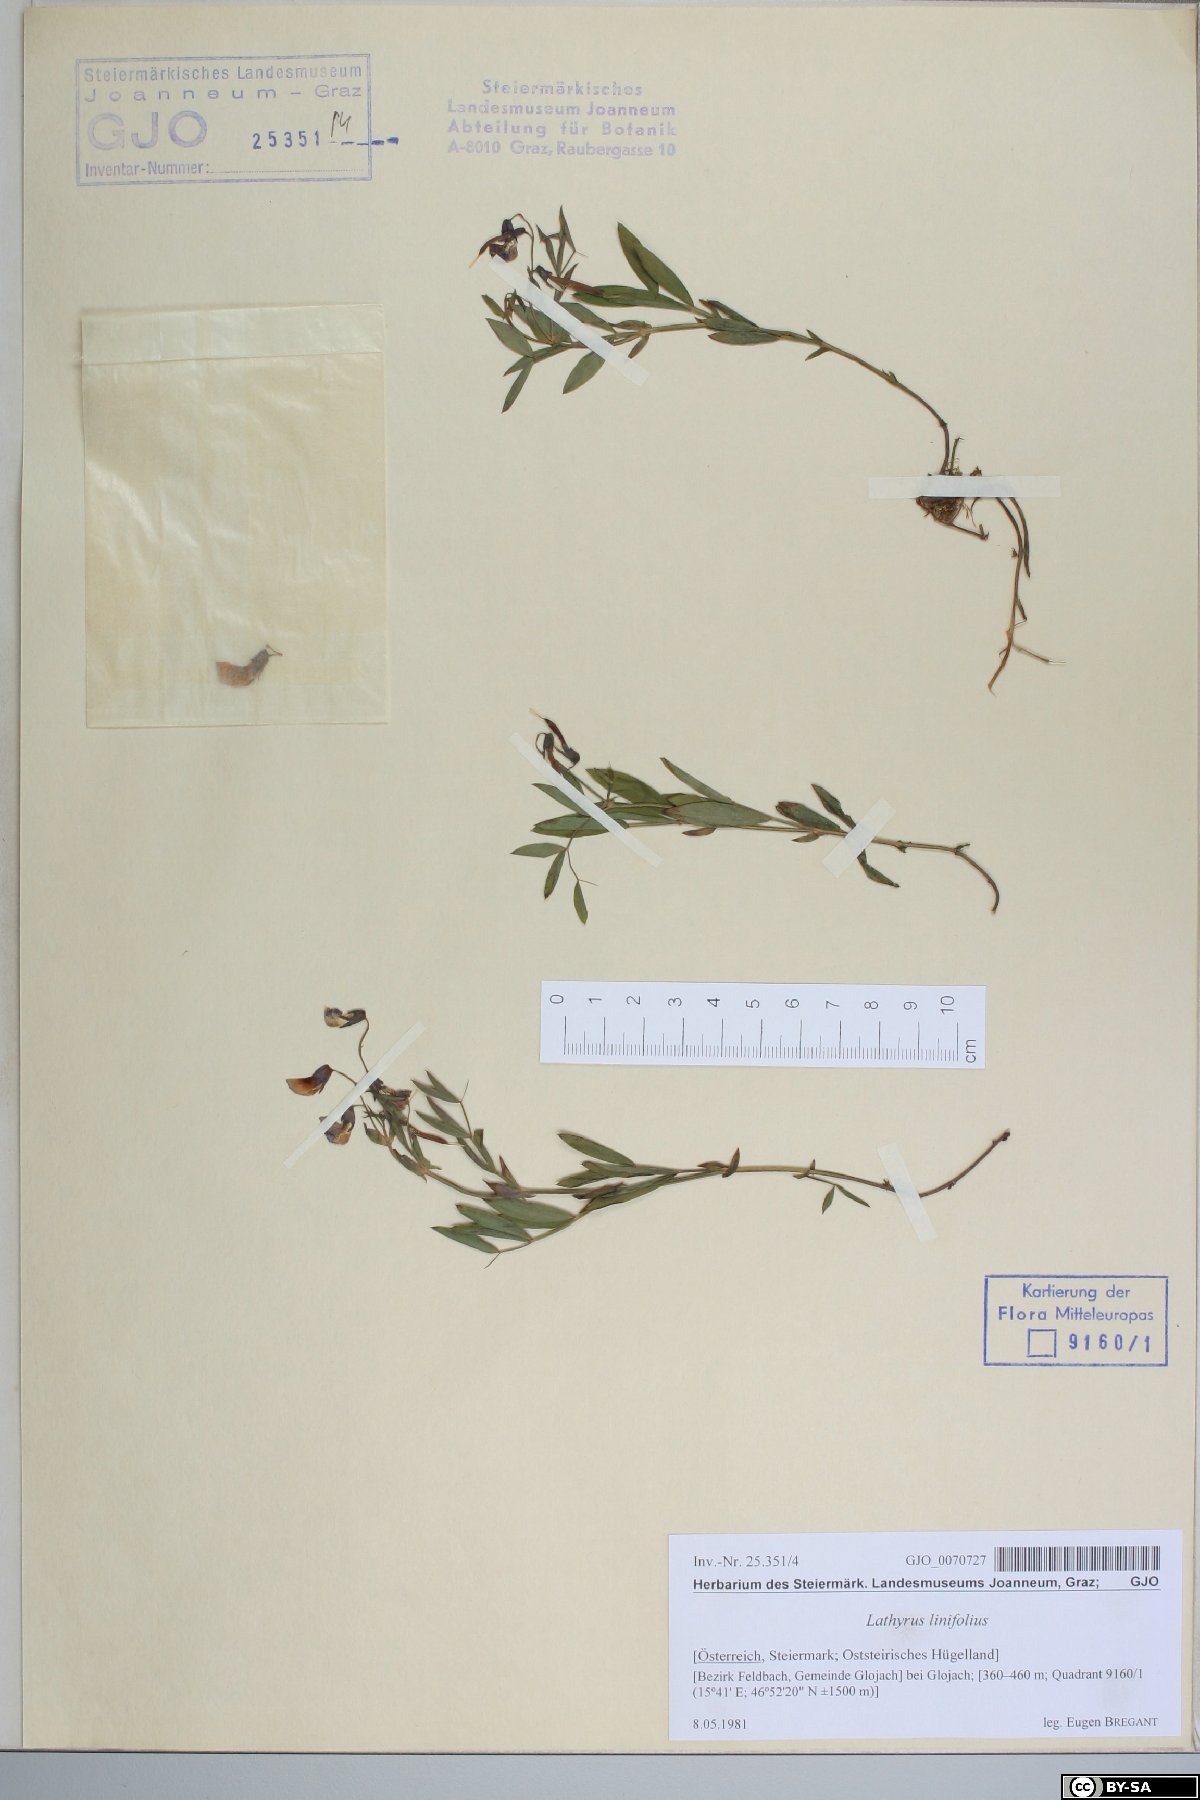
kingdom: Plantae
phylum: Tracheophyta
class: Magnoliopsida
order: Fabales
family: Fabaceae
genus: Lathyrus
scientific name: Lathyrus linifolius
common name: Bitter-vetch
